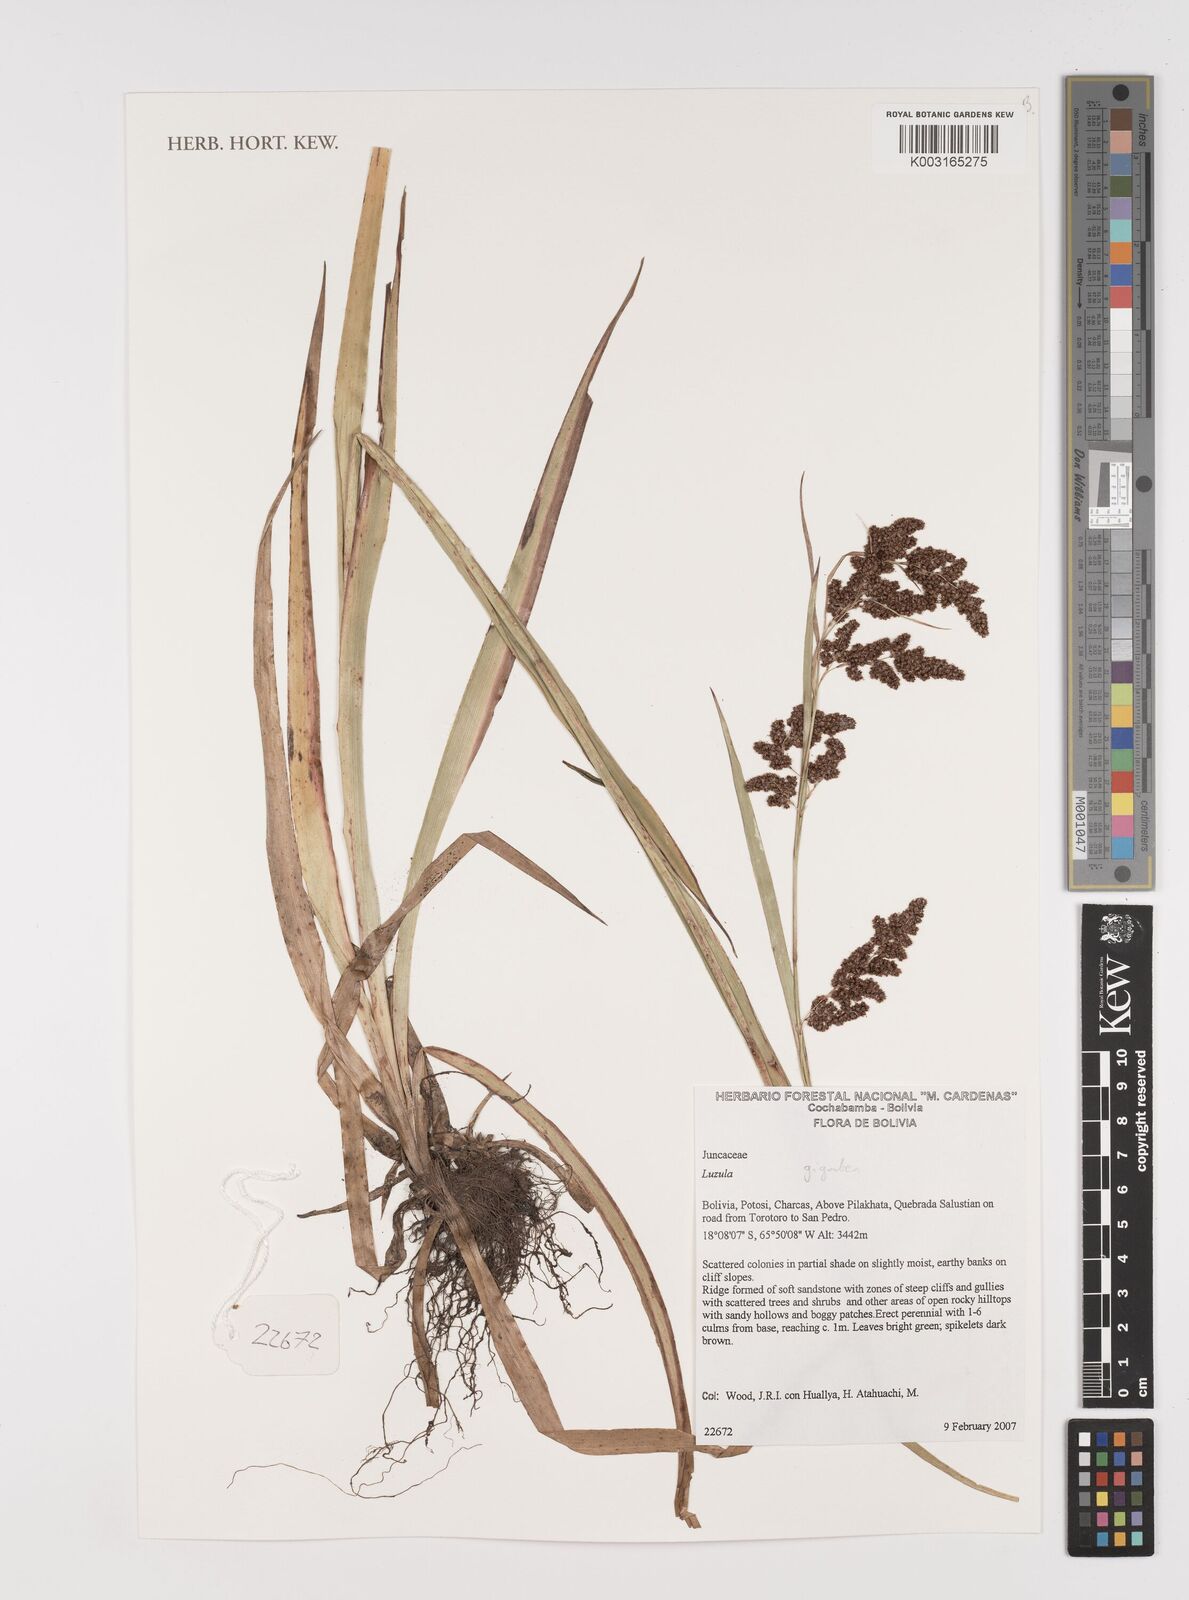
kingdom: Plantae
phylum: Tracheophyta
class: Liliopsida
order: Poales
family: Juncaceae
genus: Luzula
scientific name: Luzula gigantea
